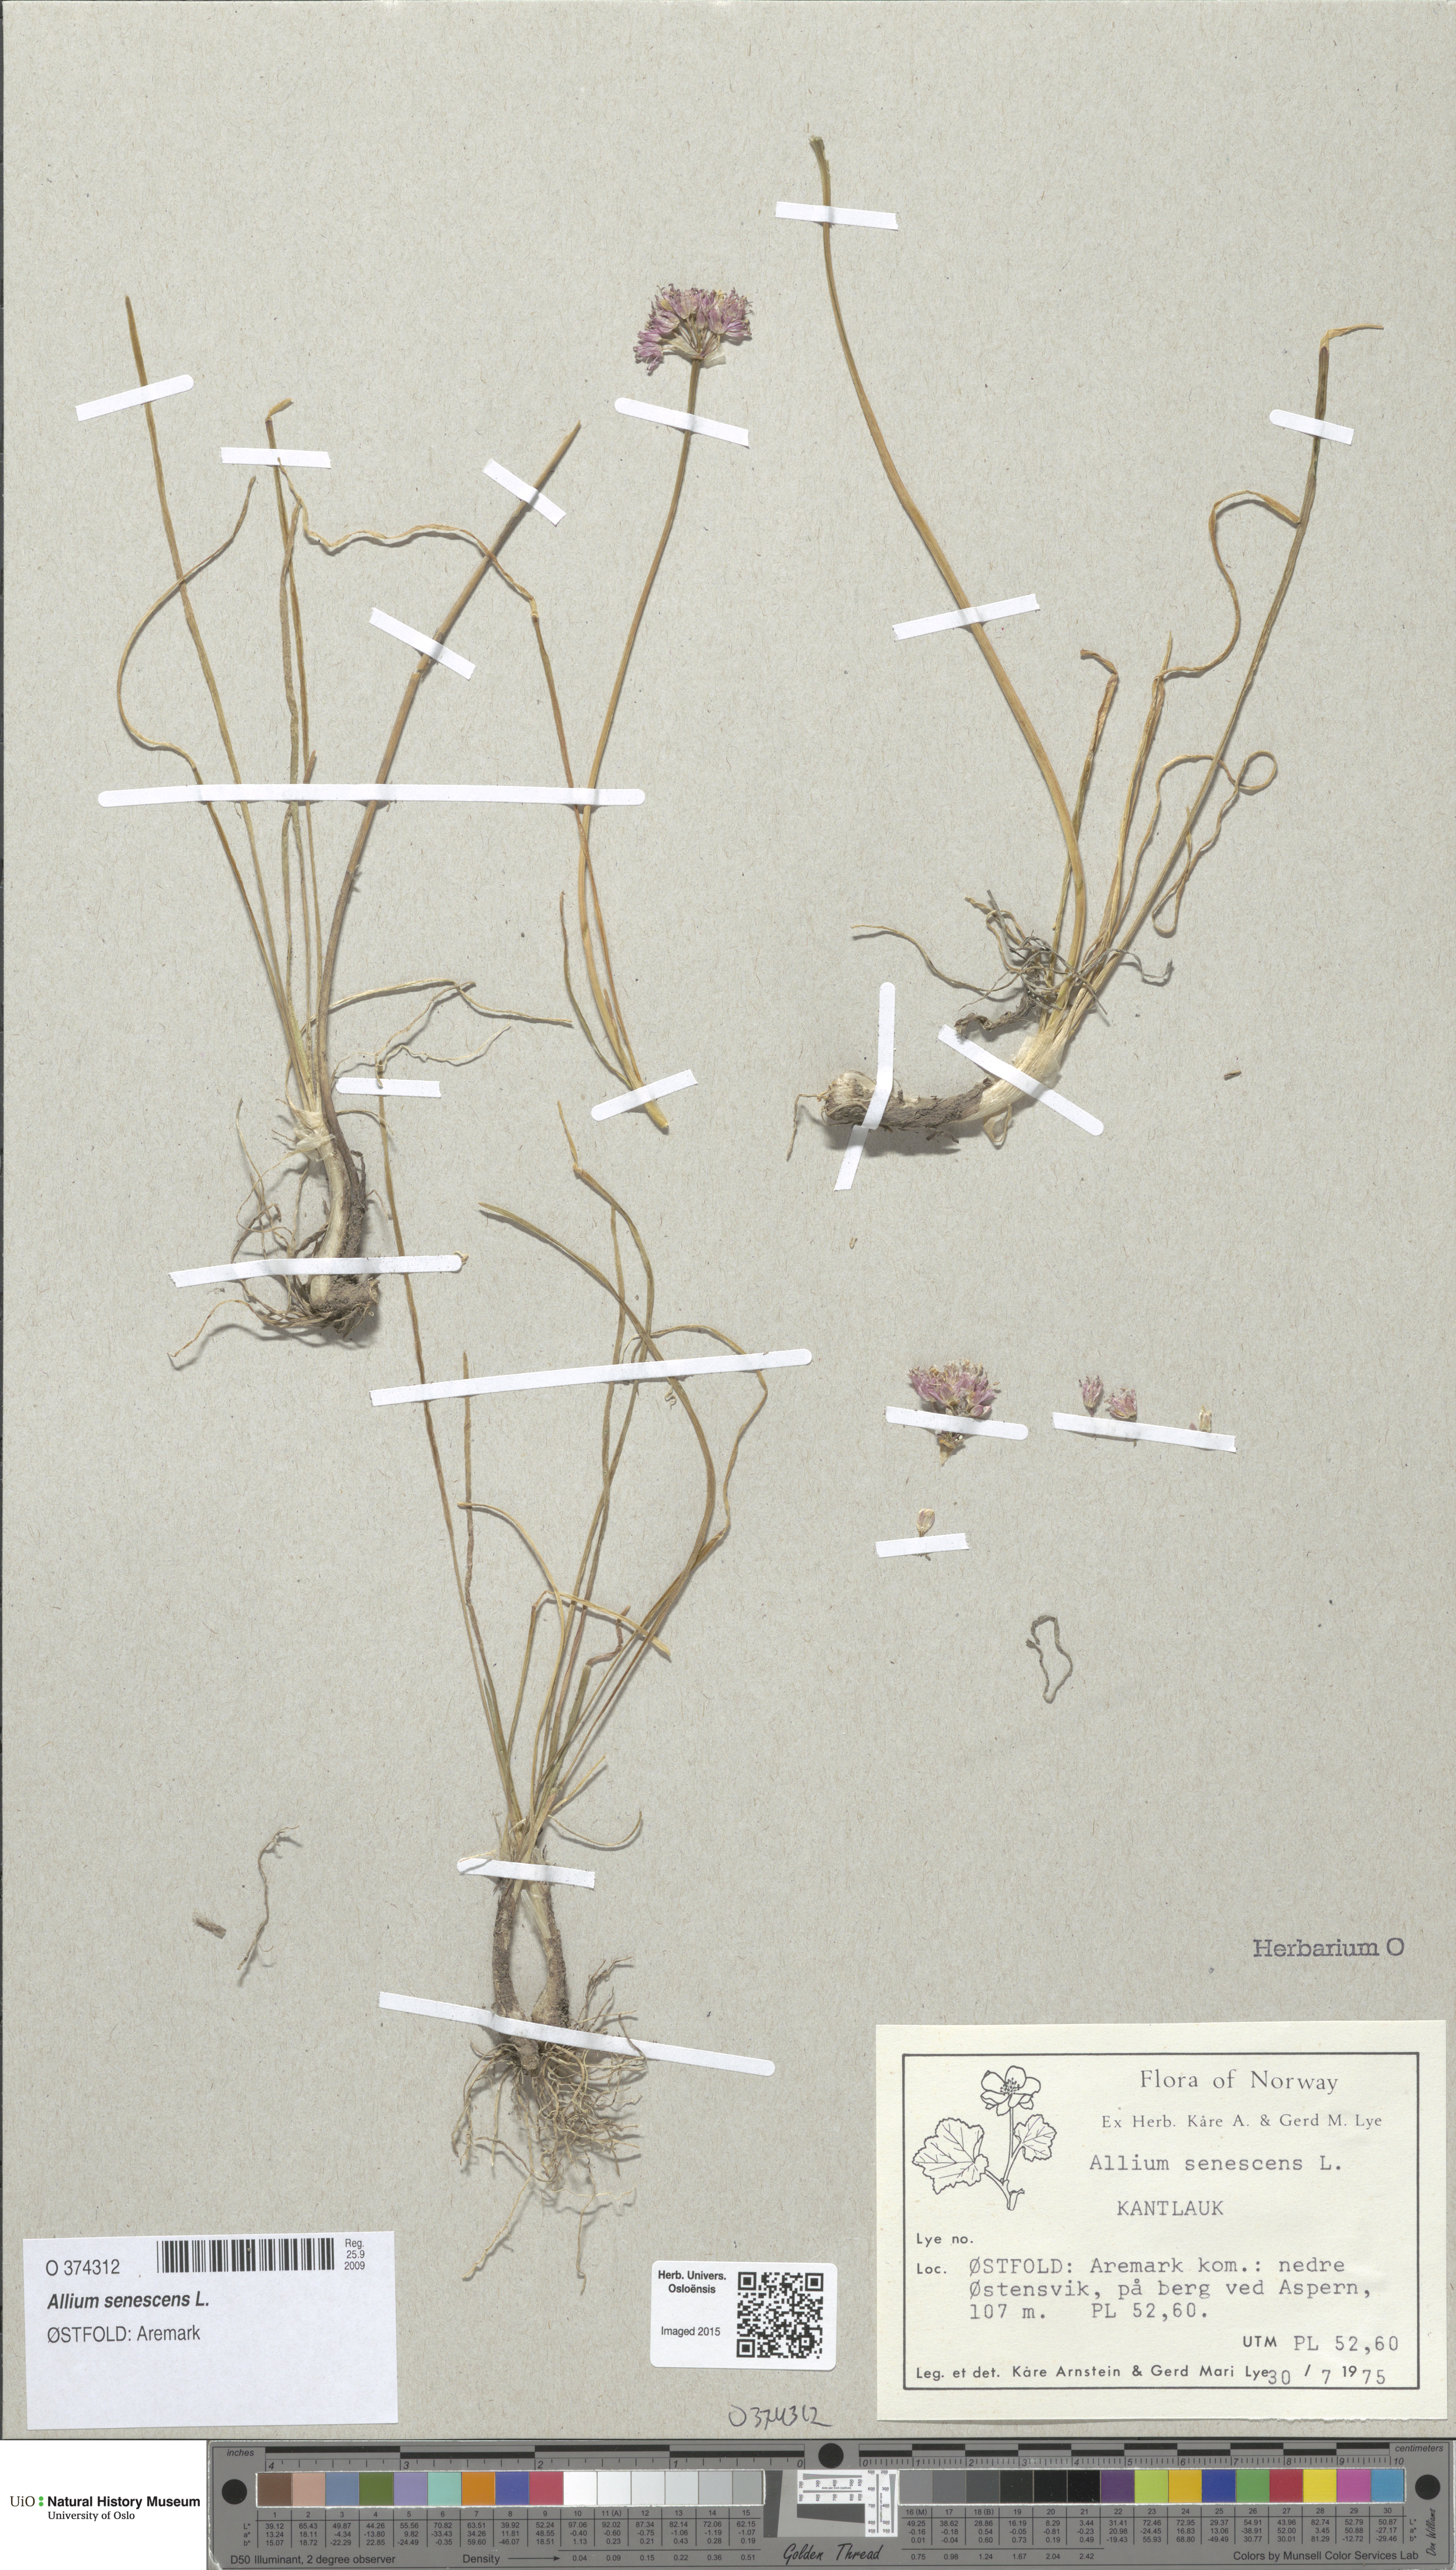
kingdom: Plantae
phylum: Tracheophyta
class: Liliopsida
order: Asparagales
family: Amaryllidaceae
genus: Allium
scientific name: Allium lusitanicum
